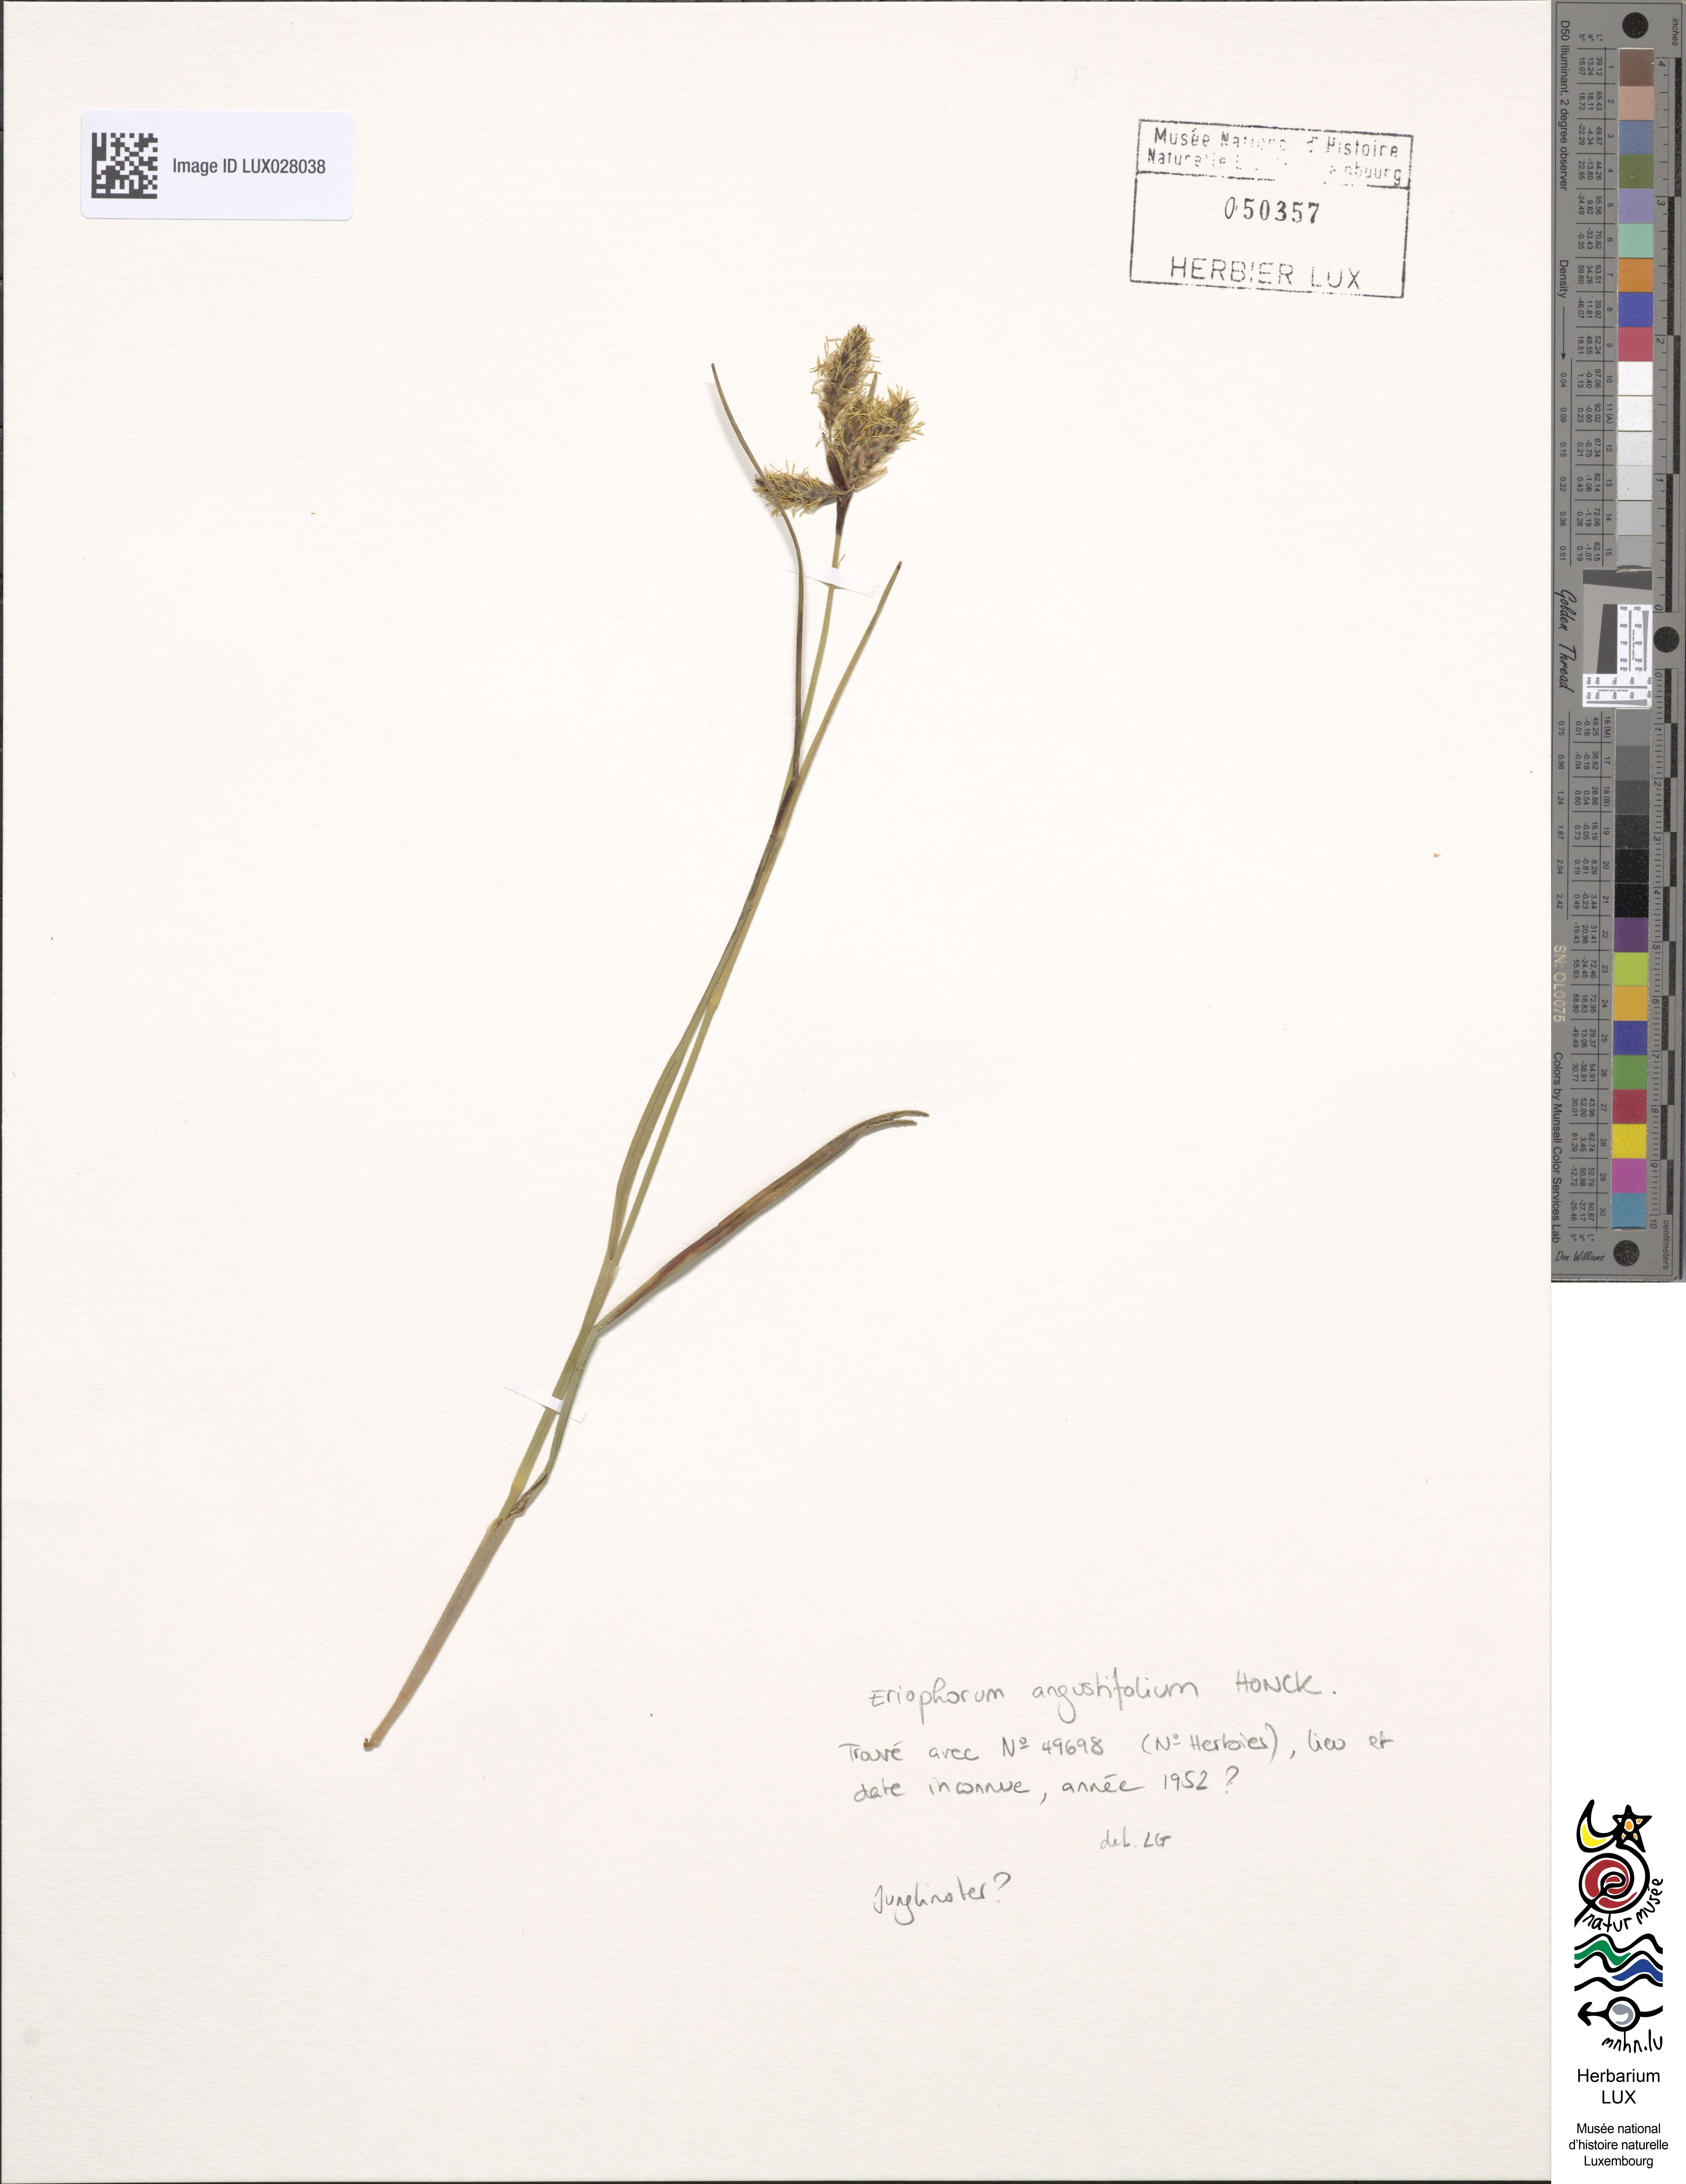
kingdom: Plantae
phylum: Tracheophyta
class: Liliopsida
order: Poales
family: Cyperaceae
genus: Eriophorum
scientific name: Eriophorum angustifolium
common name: Common cottongrass
